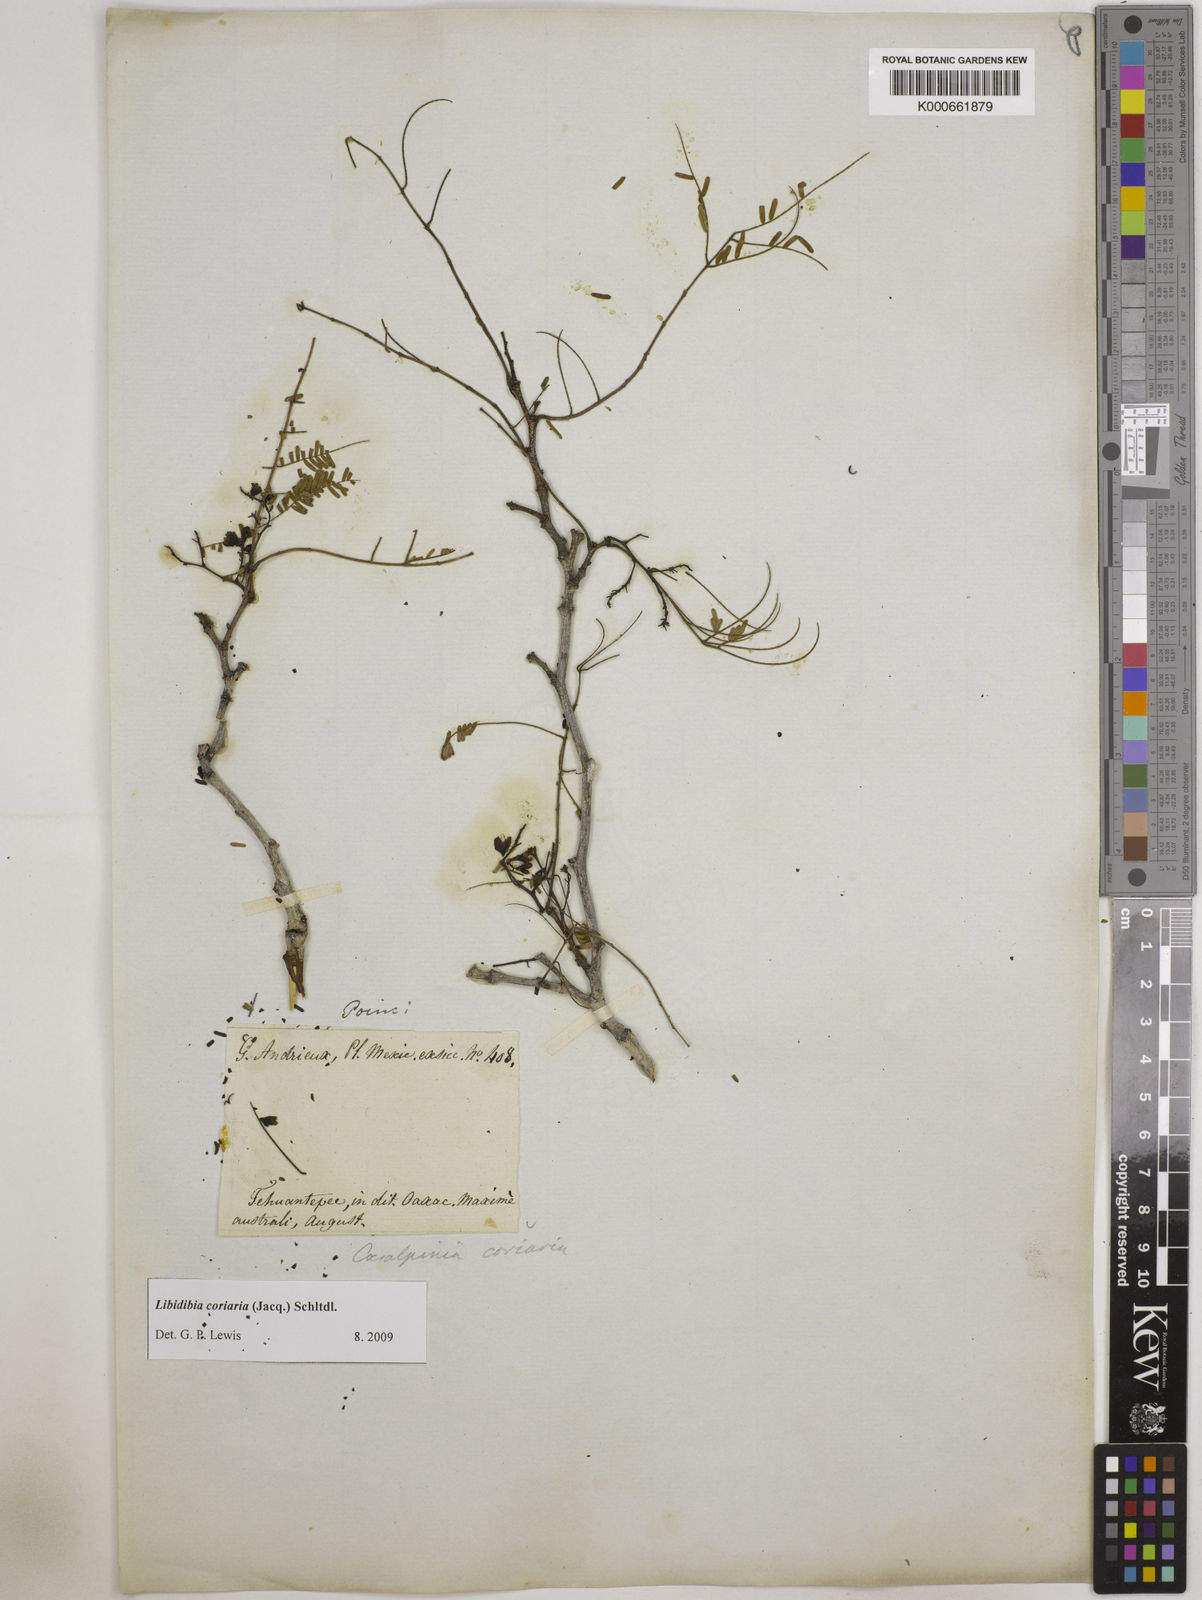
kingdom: Plantae
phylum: Tracheophyta
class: Magnoliopsida
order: Fabales
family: Fabaceae
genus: Libidibia
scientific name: Libidibia coriaria
